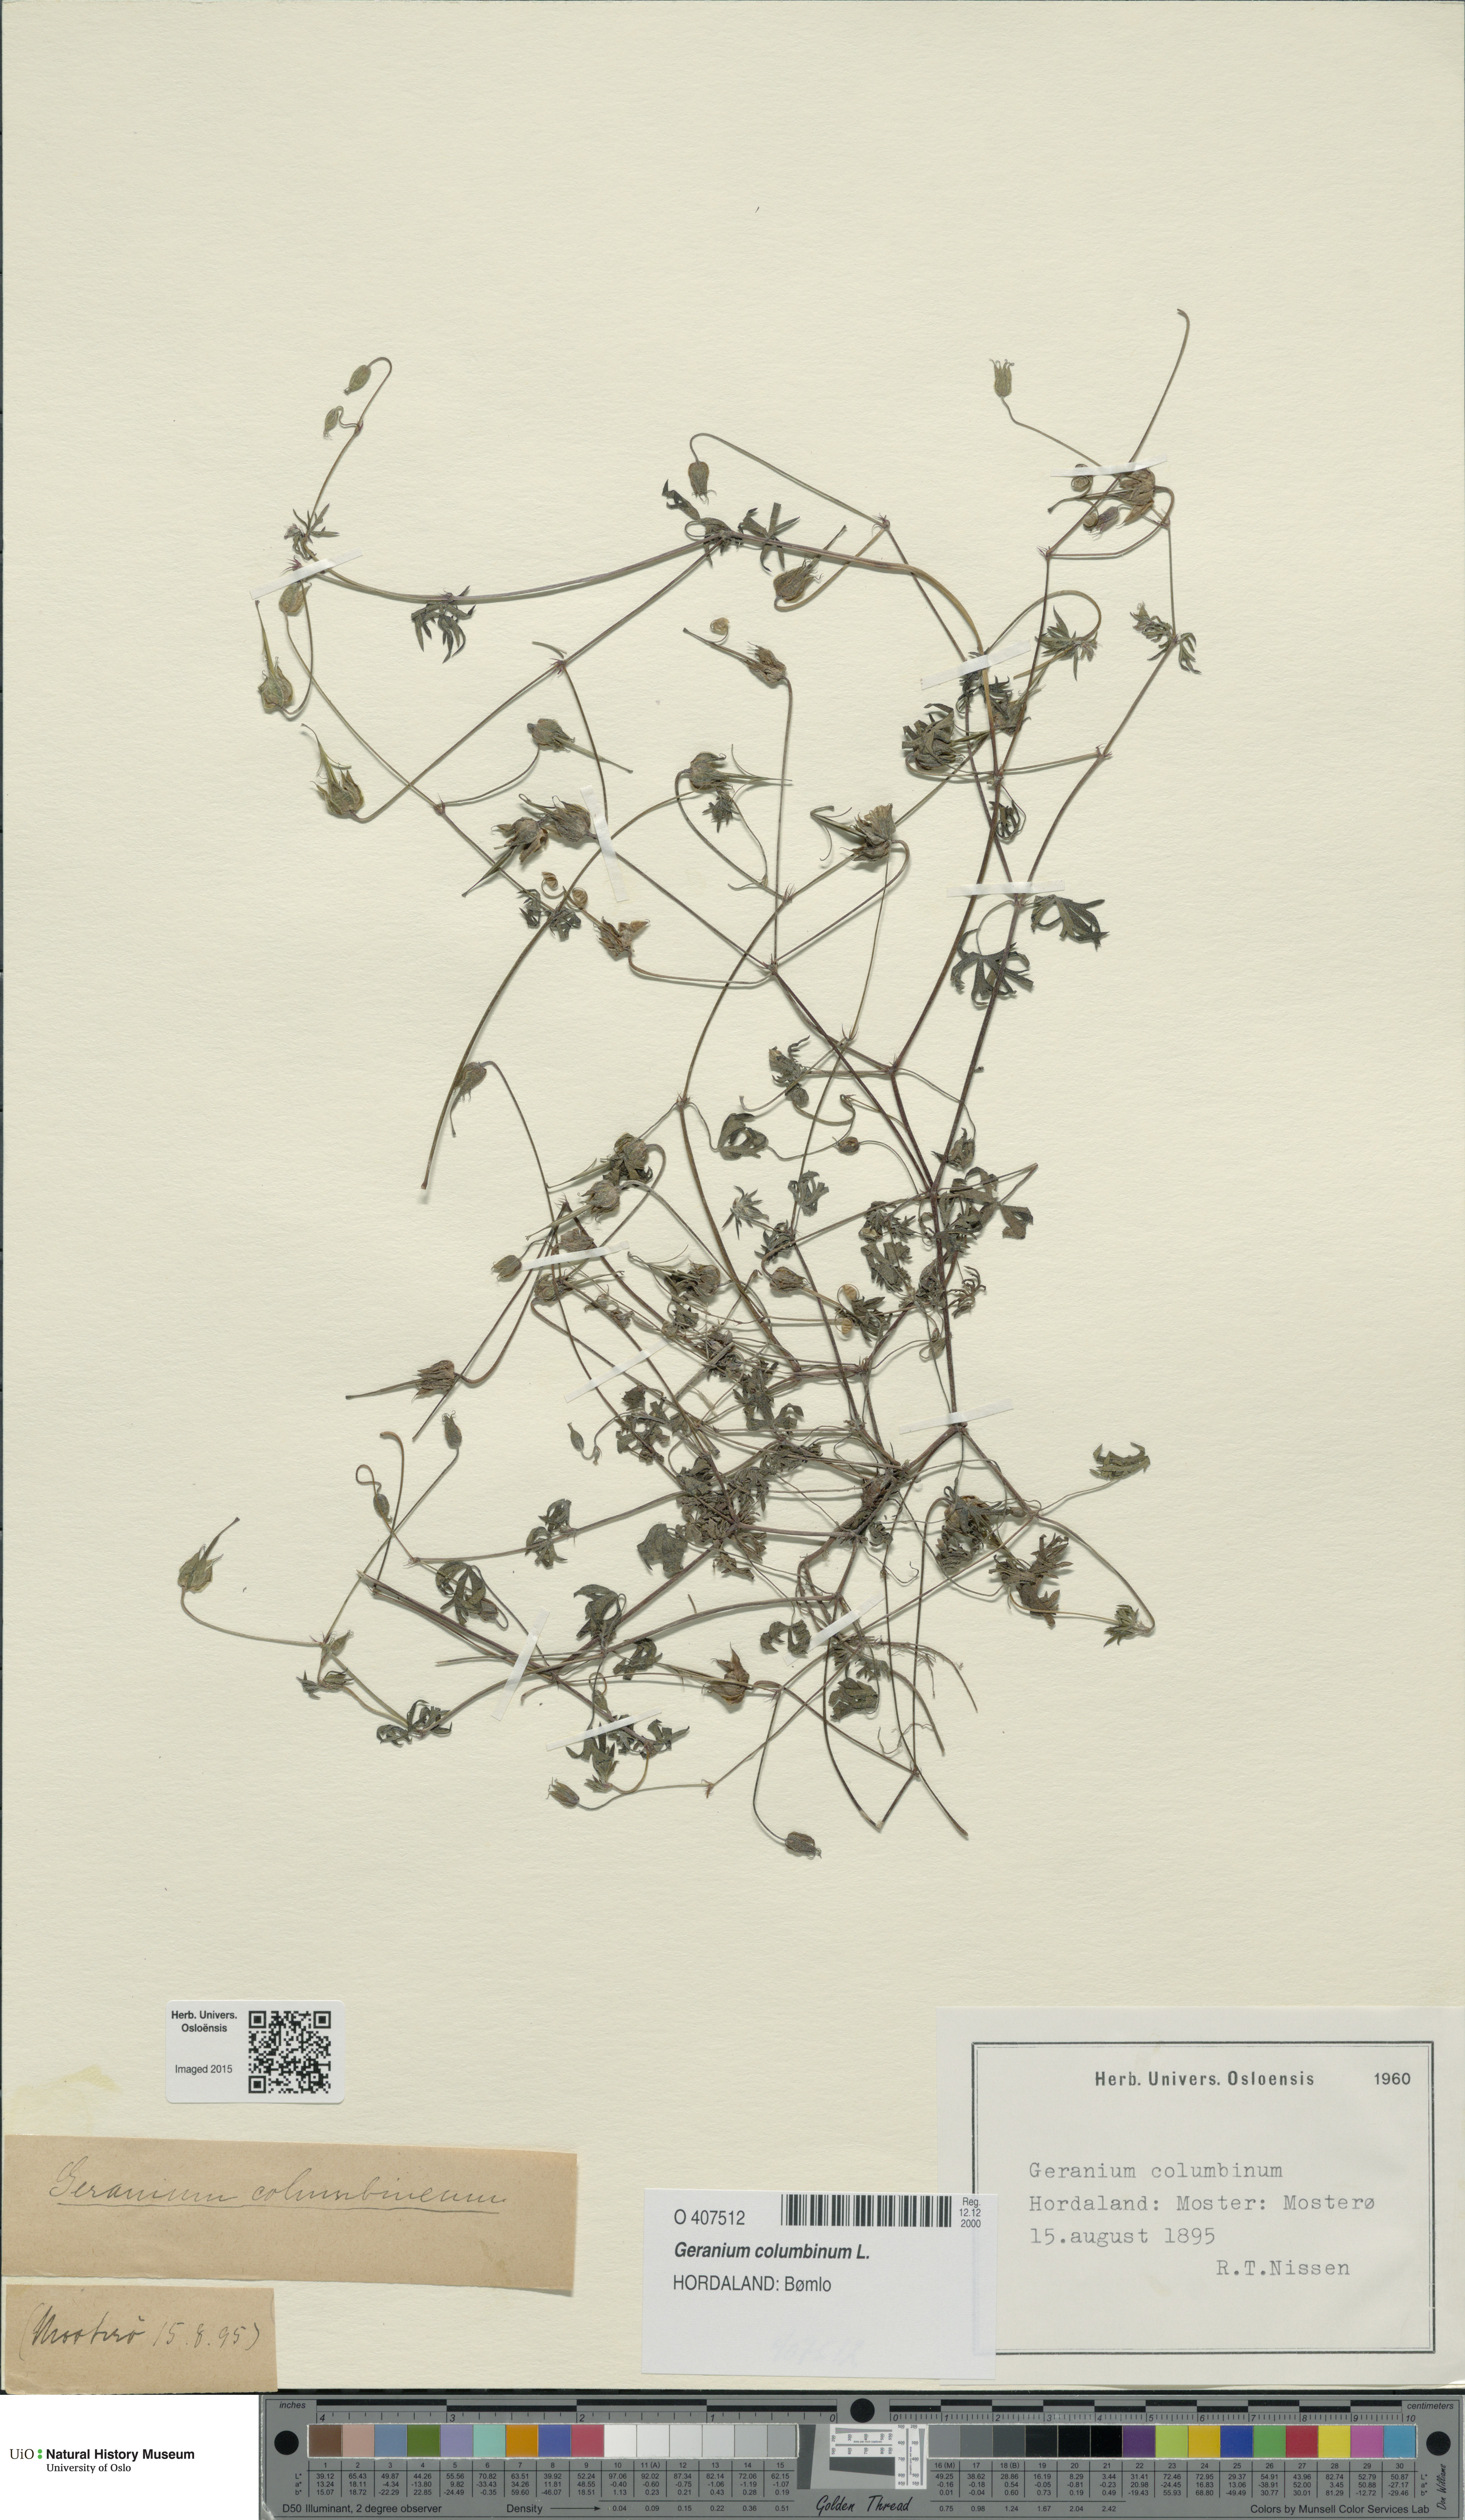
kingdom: Plantae
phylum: Tracheophyta
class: Magnoliopsida
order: Geraniales
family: Geraniaceae
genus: Geranium
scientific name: Geranium columbinum
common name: Long-stalked crane's-bill
